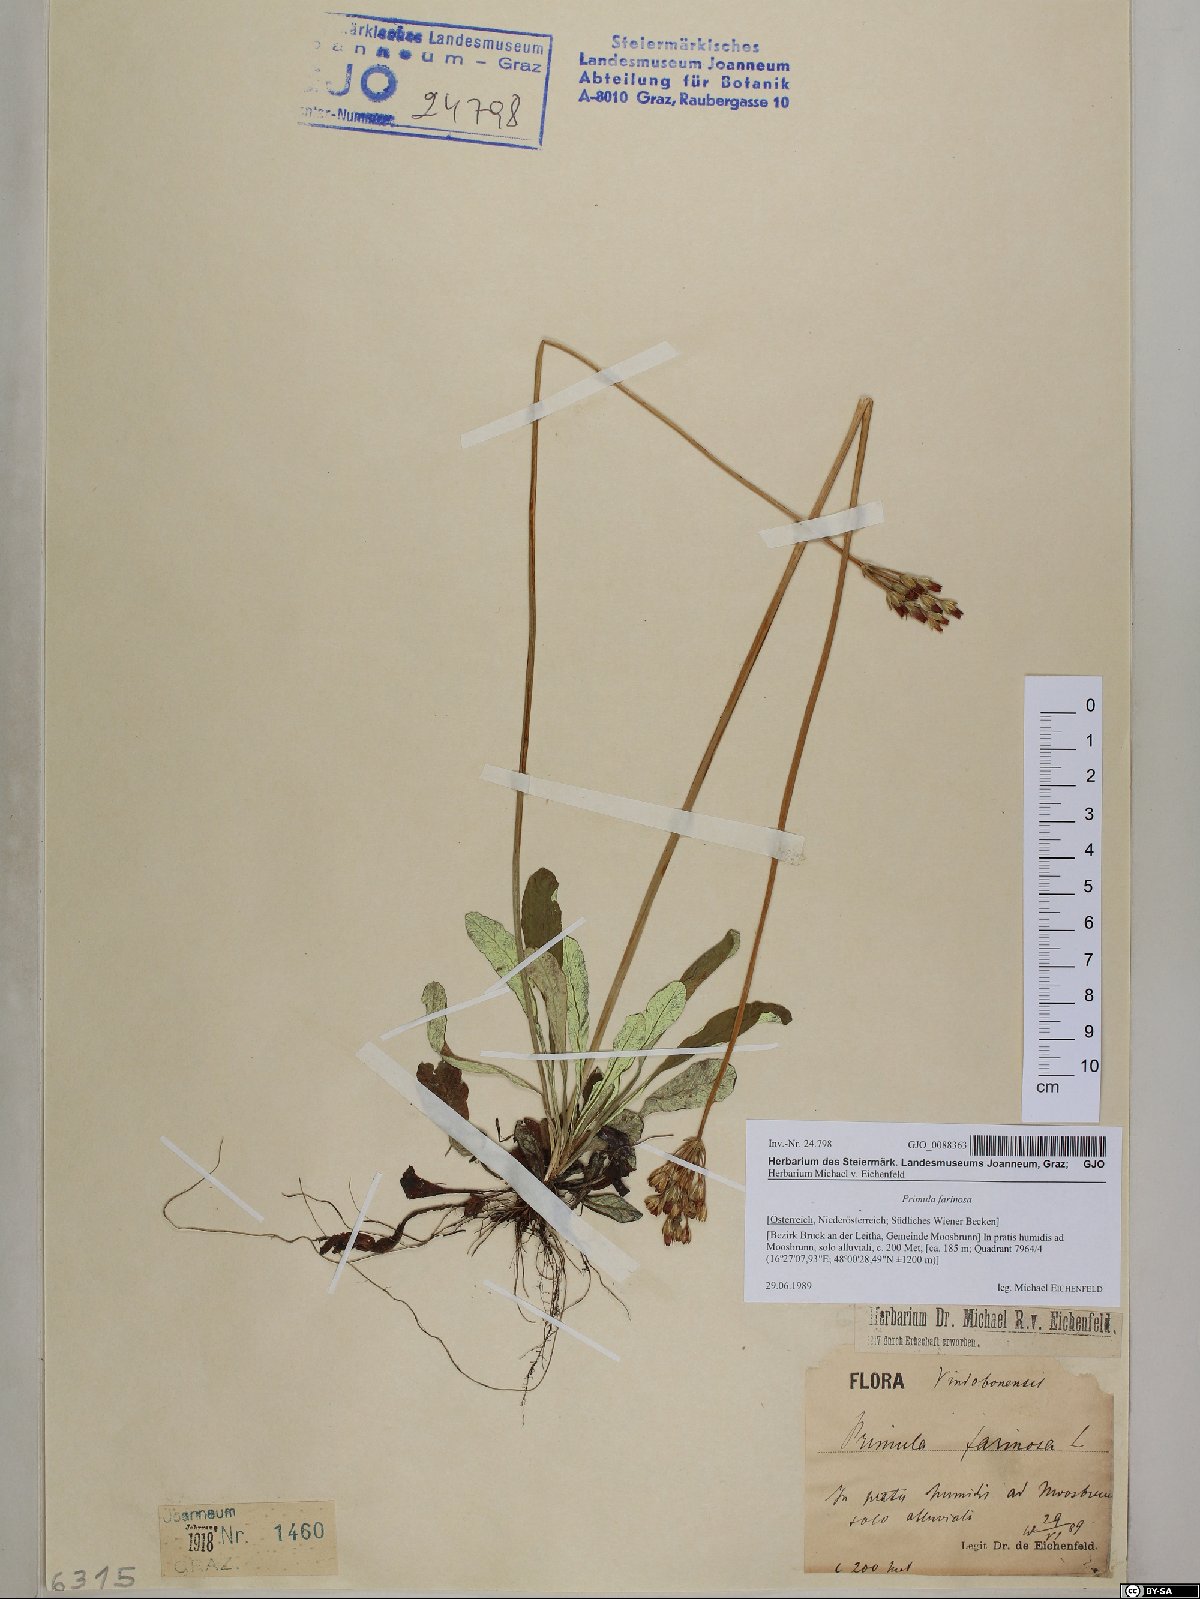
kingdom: Plantae
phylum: Tracheophyta
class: Magnoliopsida
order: Ericales
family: Primulaceae
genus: Primula
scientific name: Primula farinosa
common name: Bird's-eye primrose
